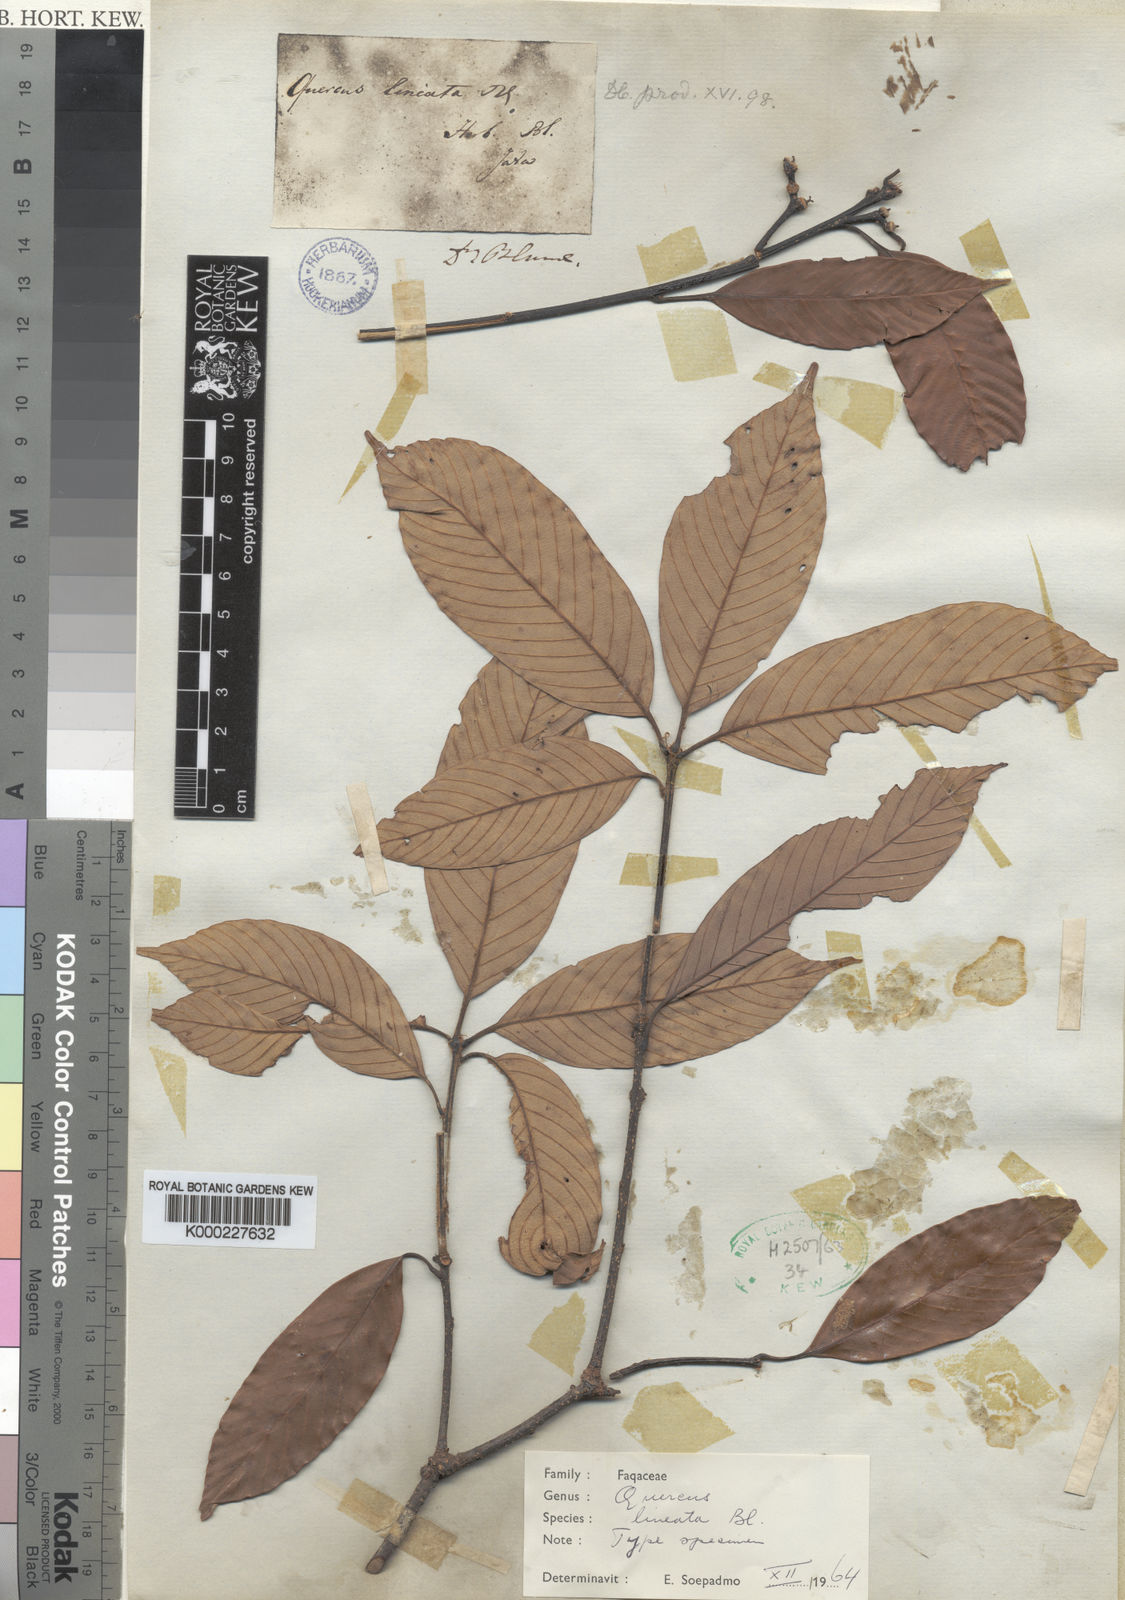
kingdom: Plantae
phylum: Tracheophyta
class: Magnoliopsida
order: Fagales
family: Fagaceae
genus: Quercus
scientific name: Quercus lineata
